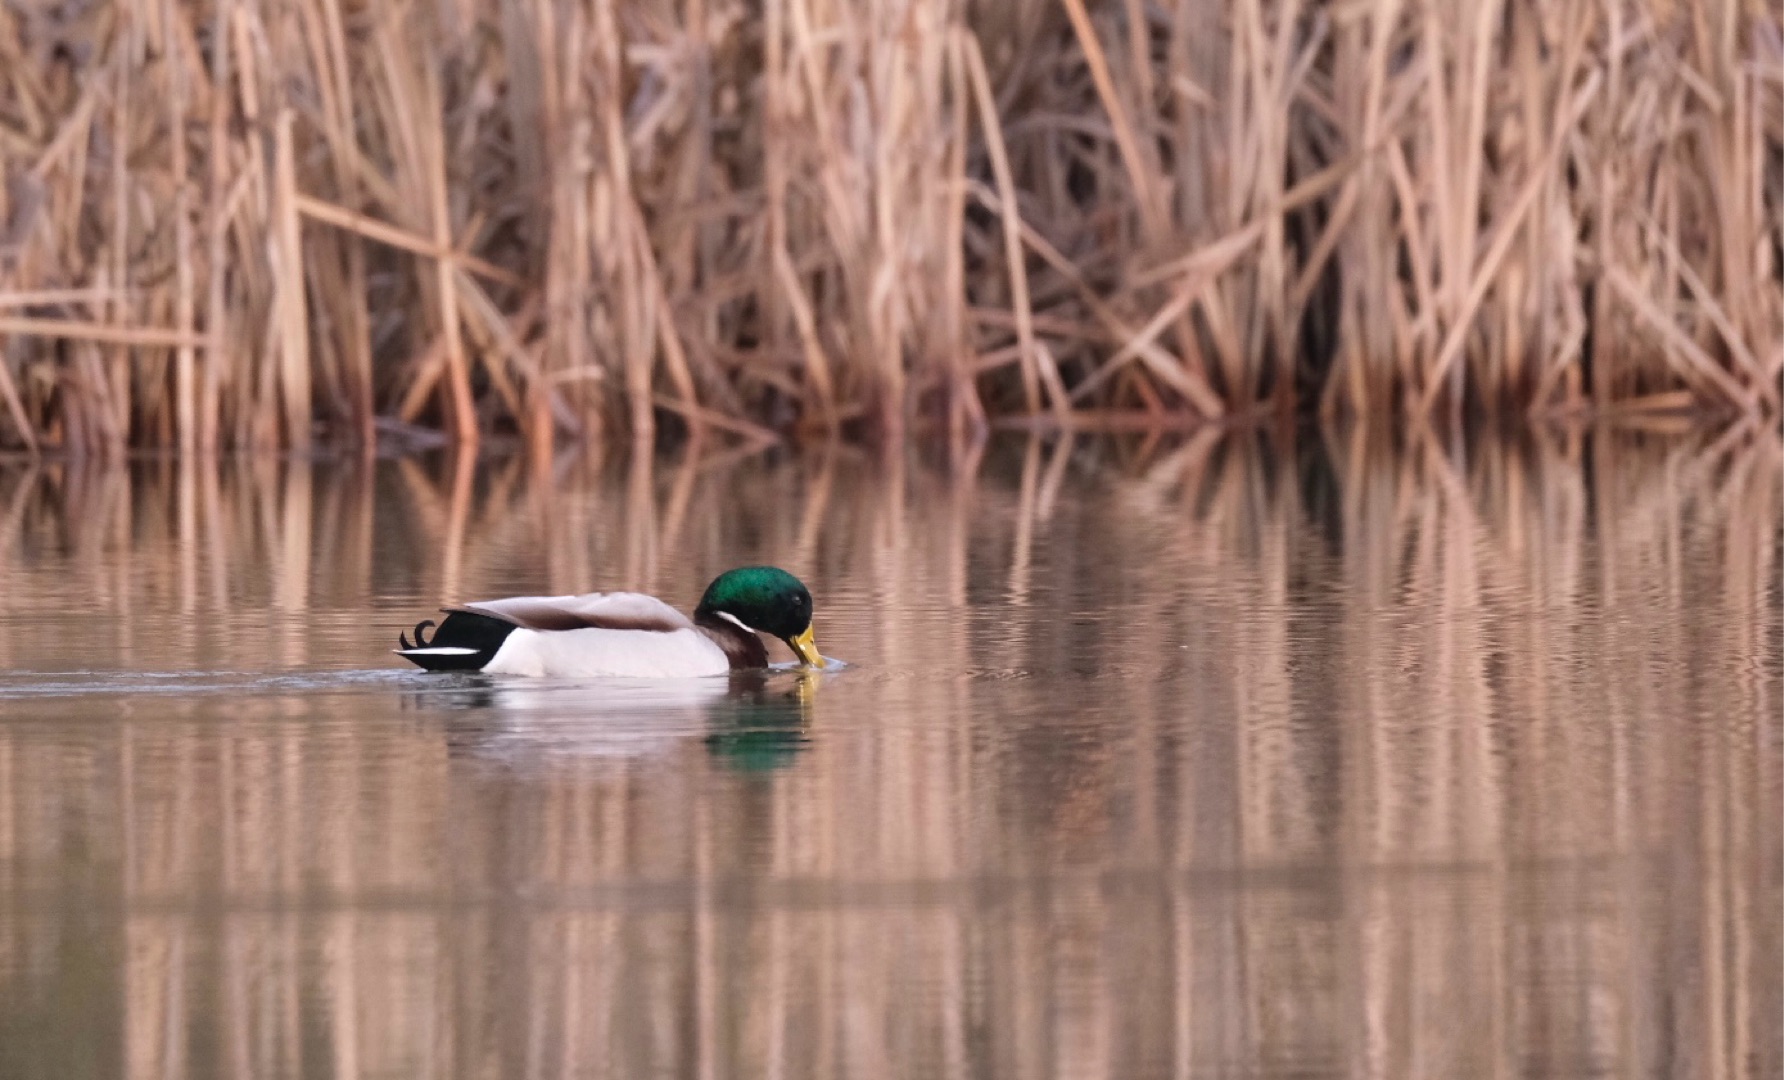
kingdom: Animalia
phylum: Chordata
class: Aves
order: Anseriformes
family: Anatidae
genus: Anas
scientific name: Anas platyrhynchos
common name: Gråand
